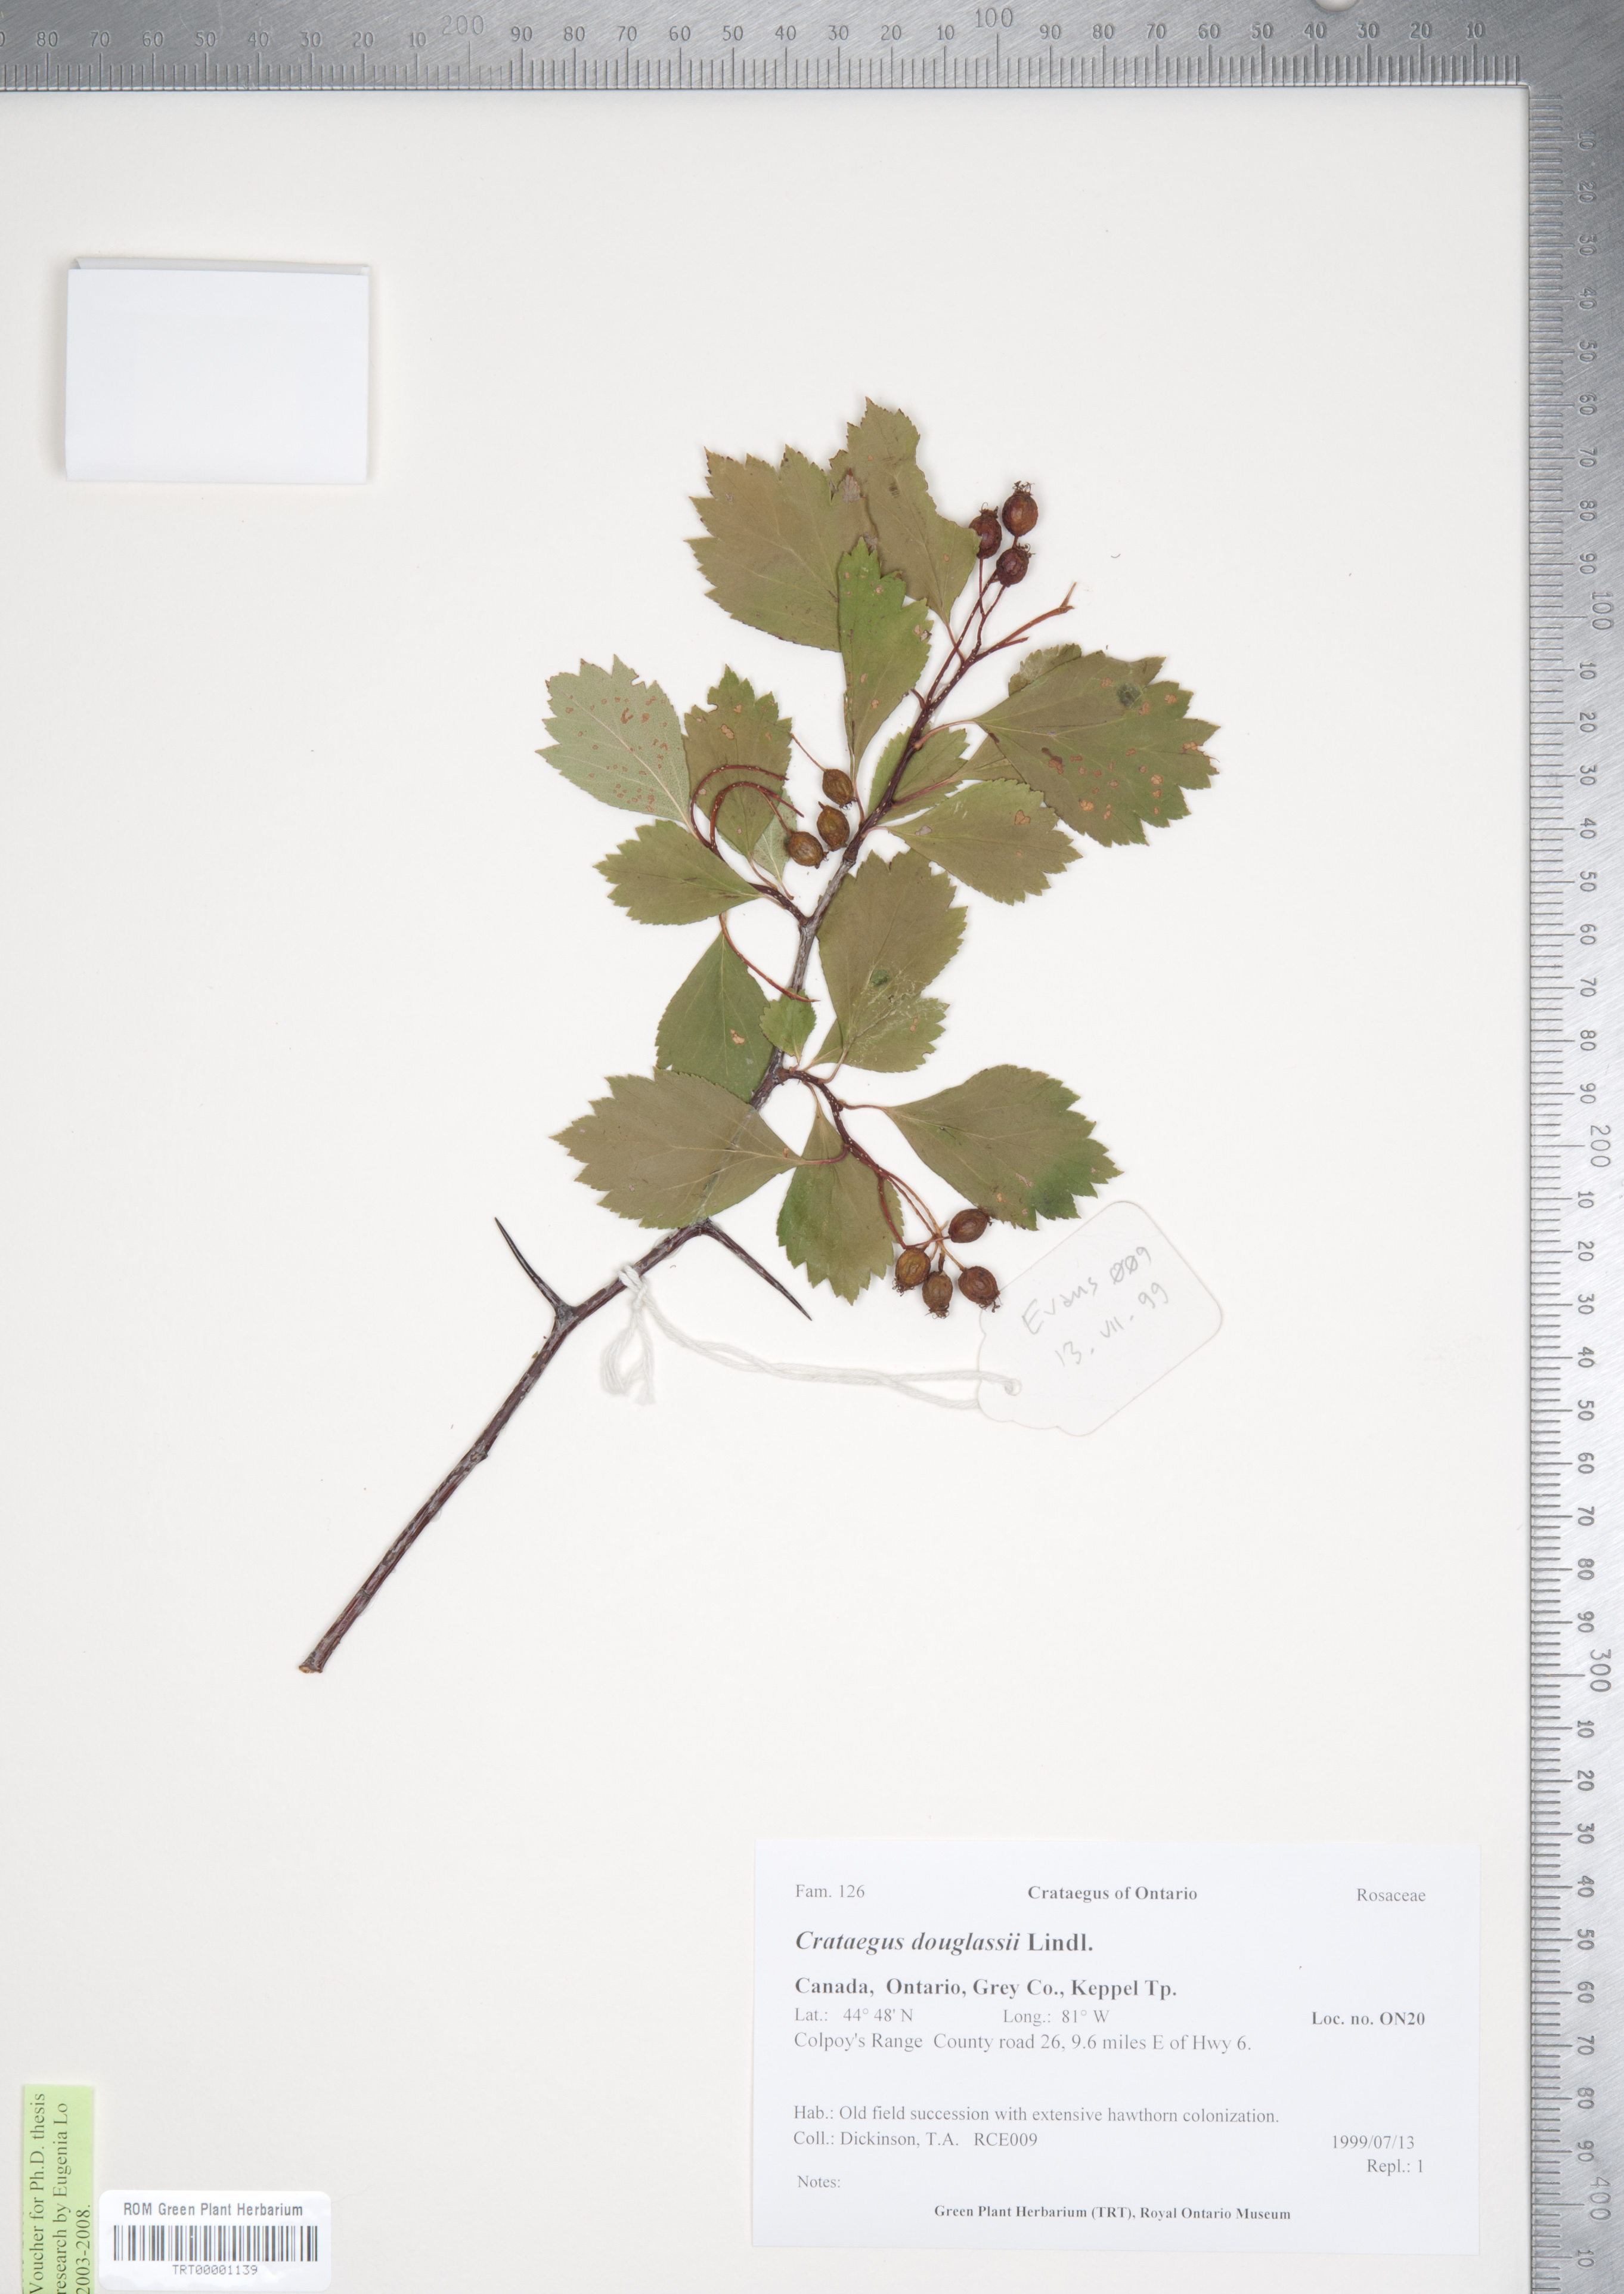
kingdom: Plantae
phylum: Tracheophyta
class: Magnoliopsida
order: Rosales
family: Rosaceae
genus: Crataegus
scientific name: Crataegus douglasii
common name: Black hawthorn
